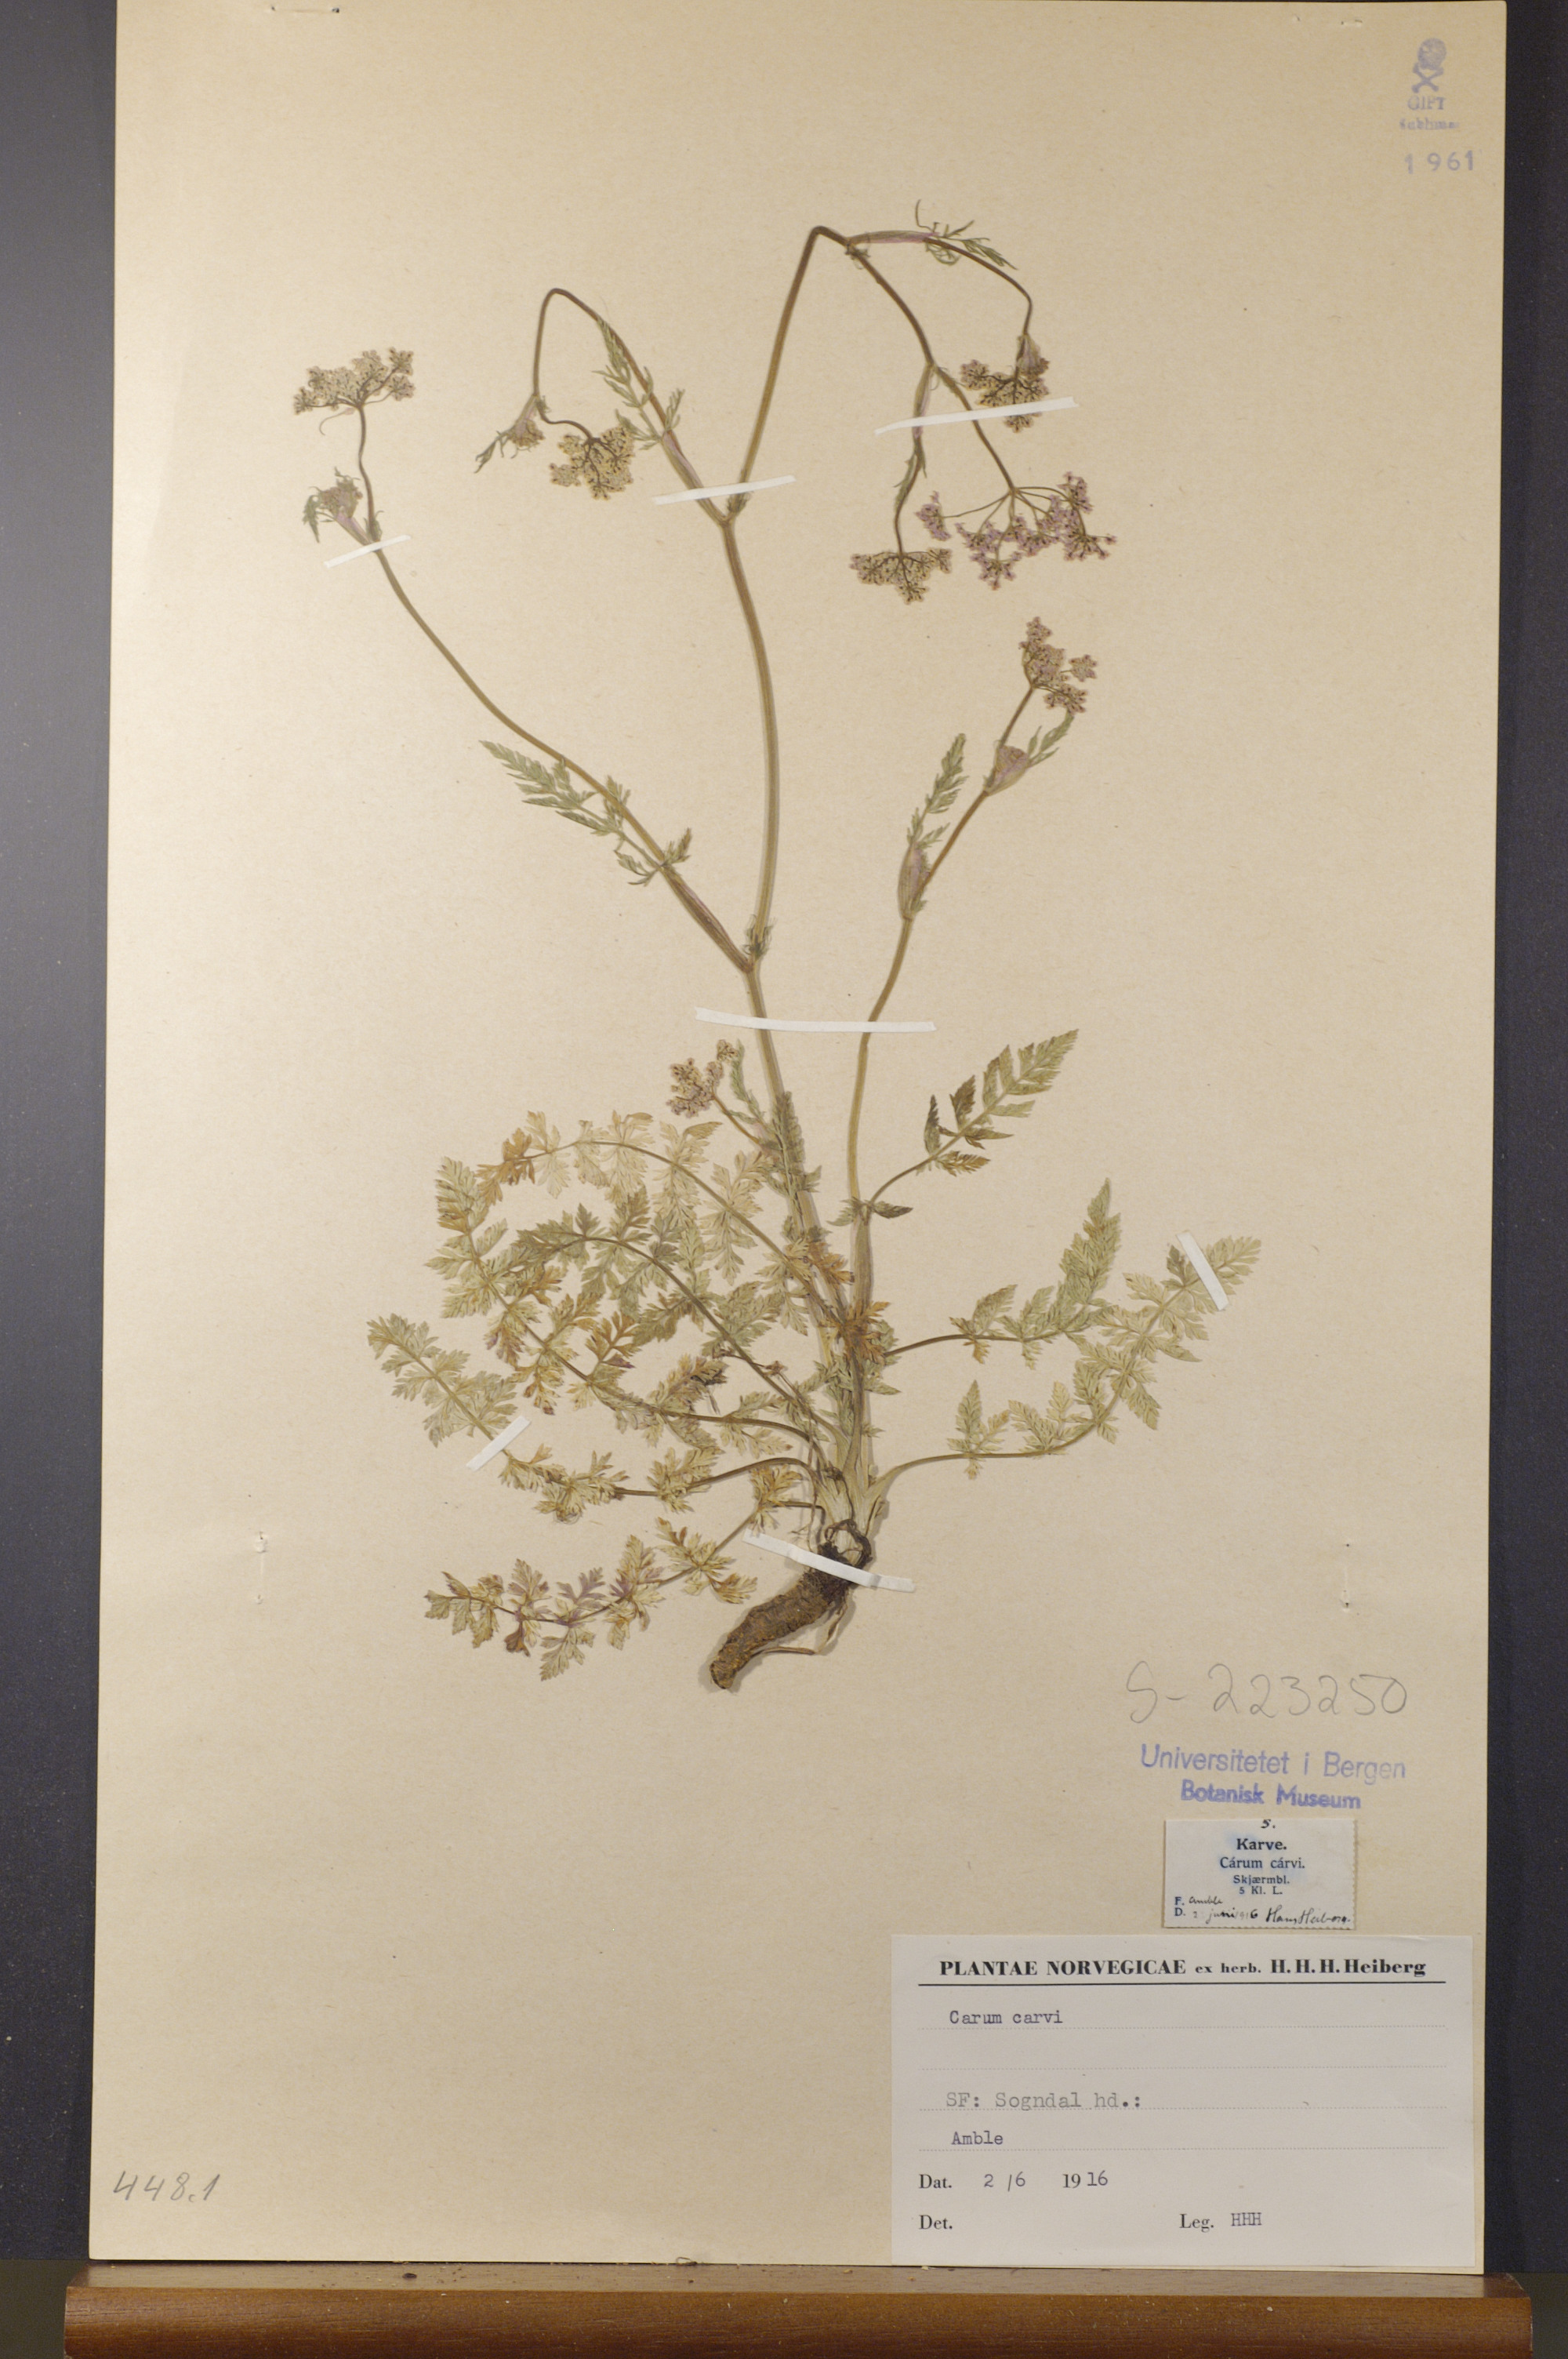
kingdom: Plantae
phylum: Tracheophyta
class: Magnoliopsida
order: Apiales
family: Apiaceae
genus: Carum
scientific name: Carum carvi
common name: Caraway
